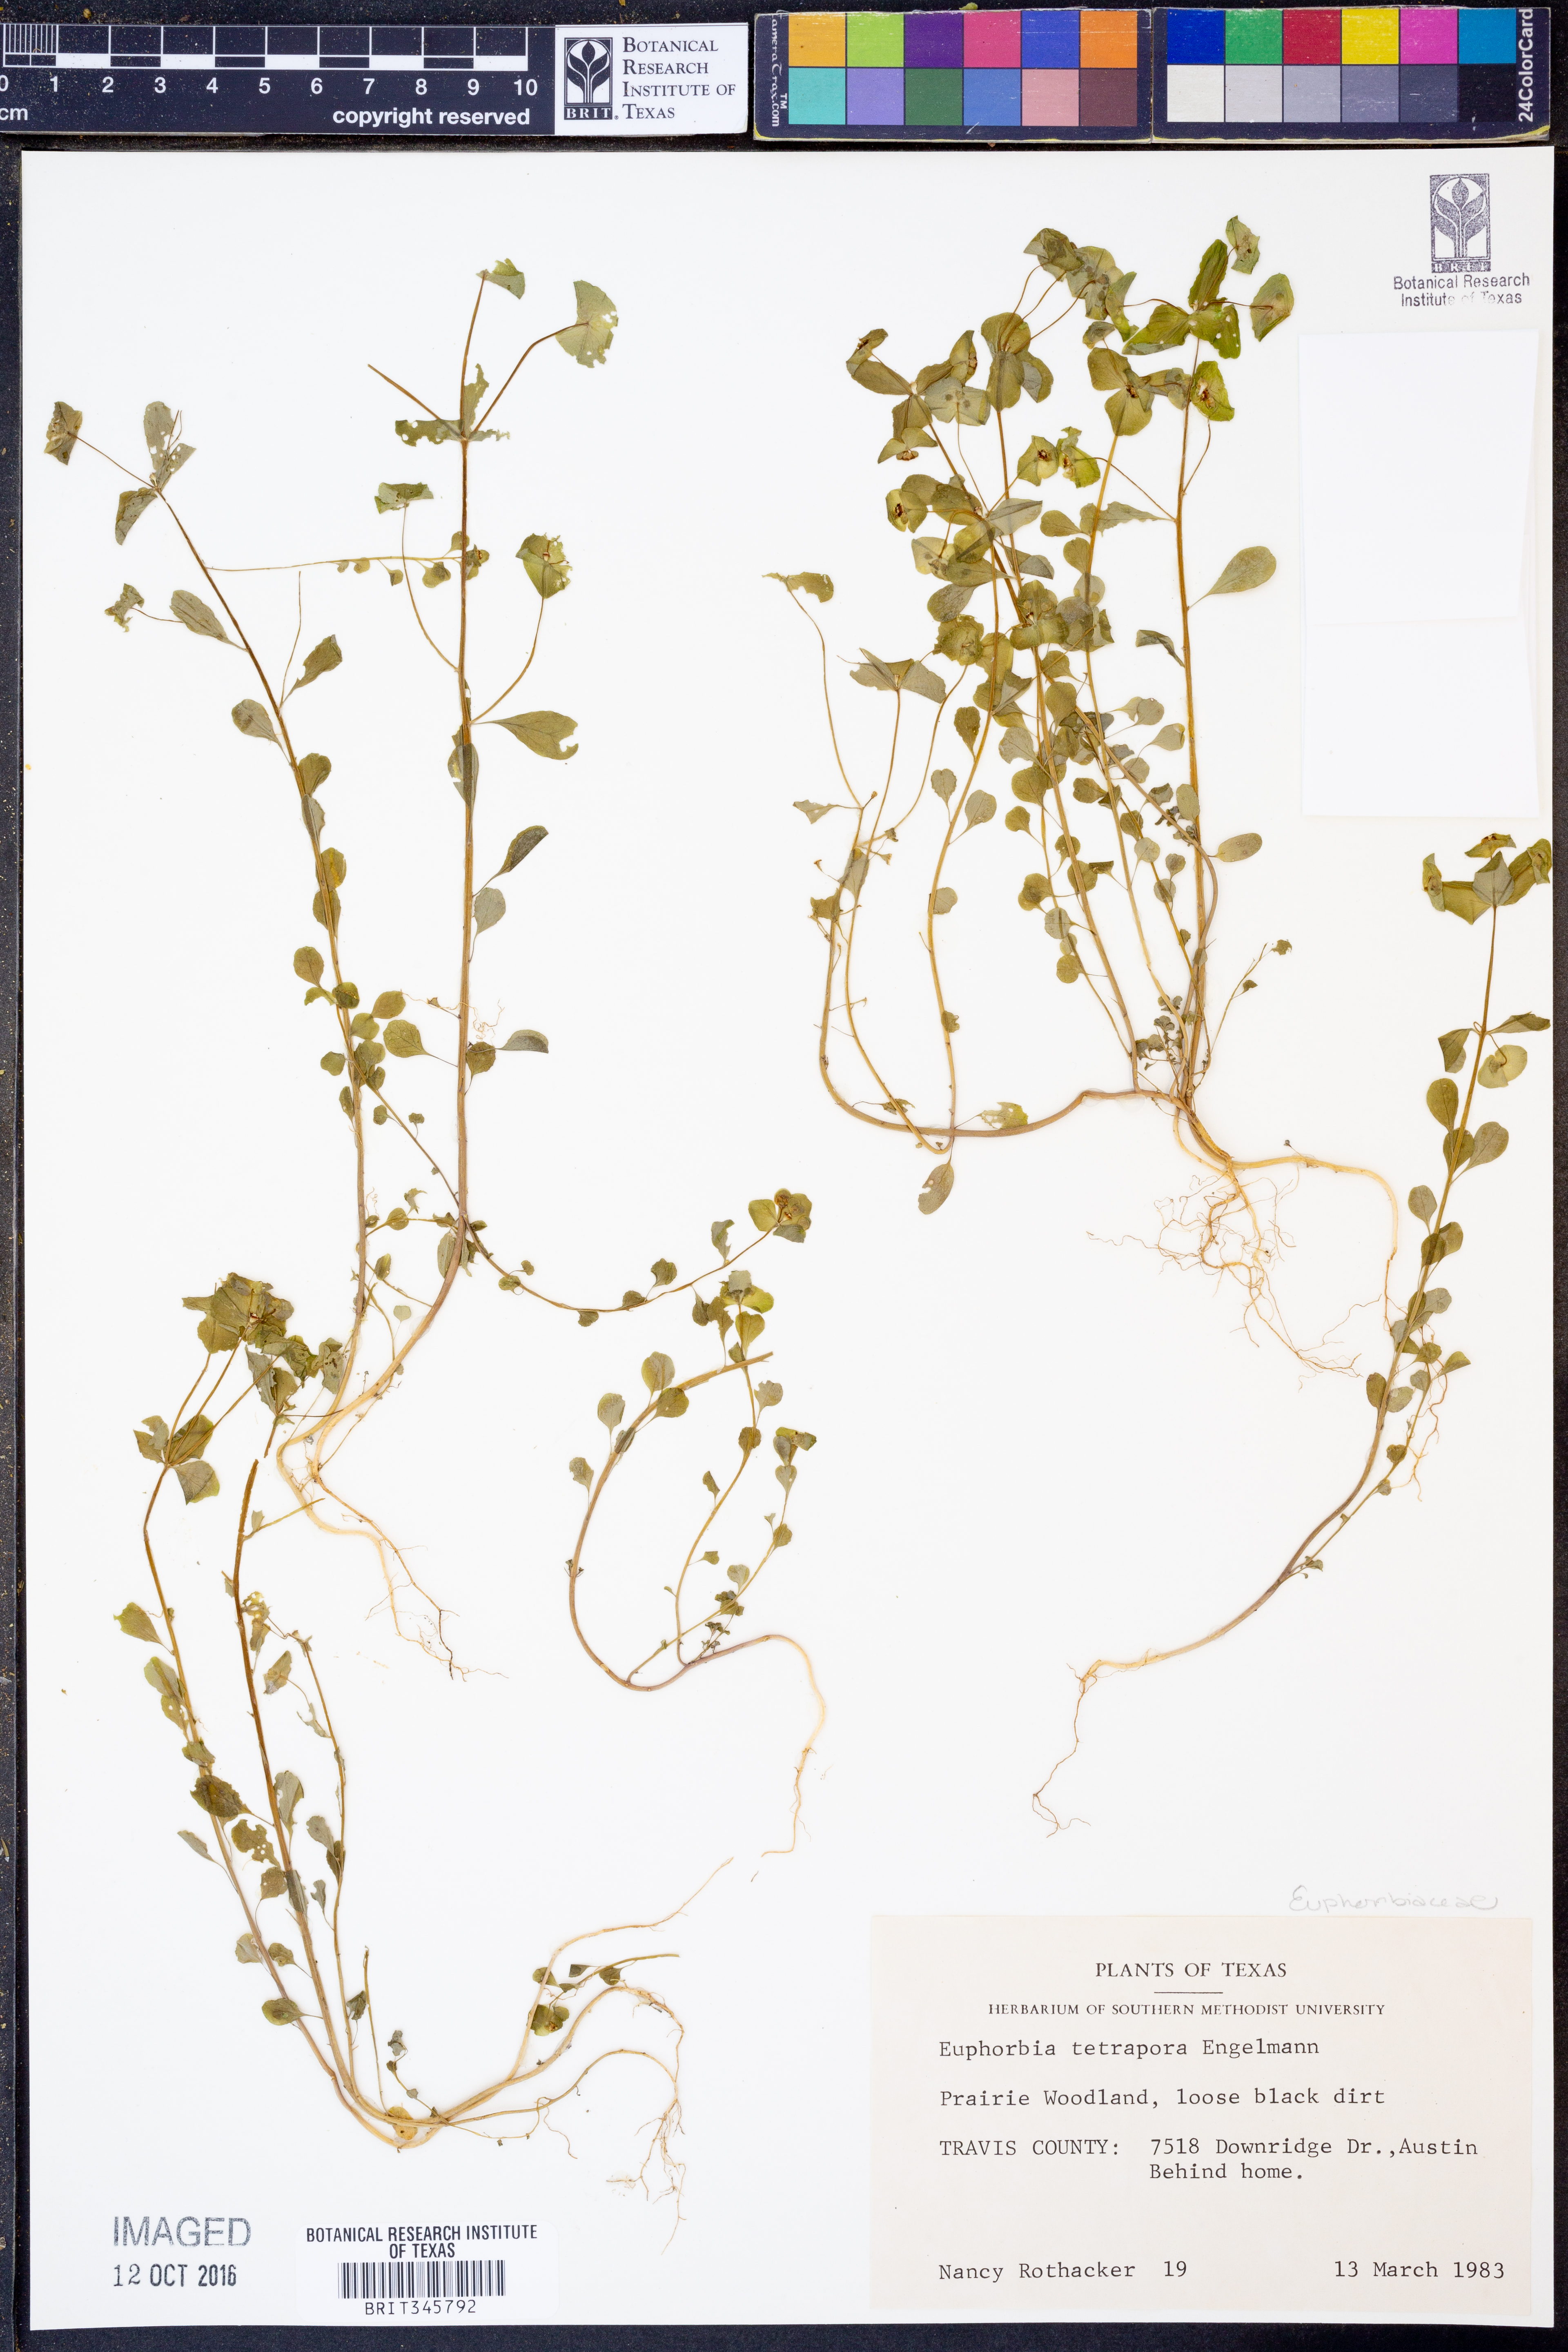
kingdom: Plantae
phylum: Tracheophyta
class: Magnoliopsida
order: Malpighiales
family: Euphorbiaceae
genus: Euphorbia
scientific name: Euphorbia roemeriana
